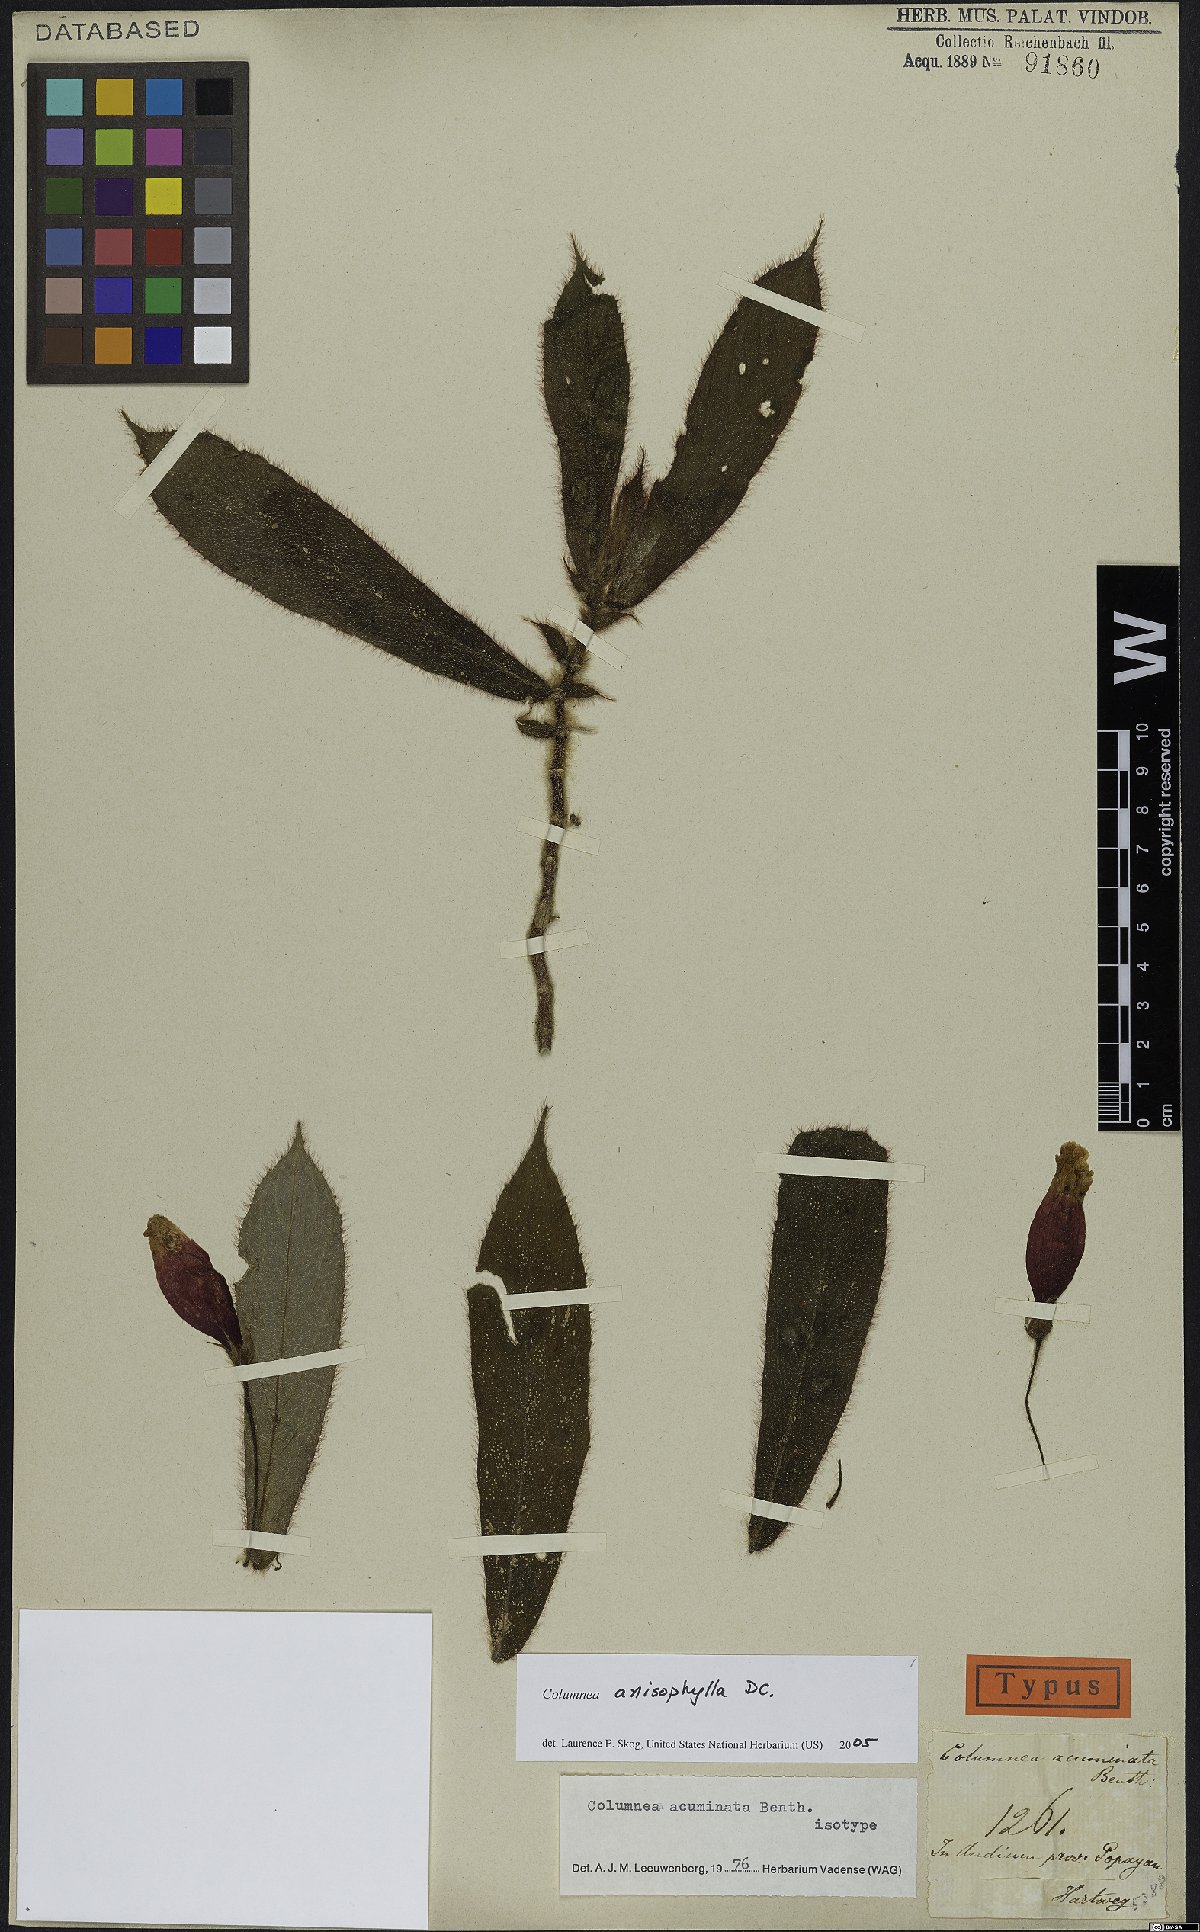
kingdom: Plantae
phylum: Tracheophyta
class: Magnoliopsida
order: Lamiales
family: Gesneriaceae
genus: Columnea
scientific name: Columnea anisophylla
